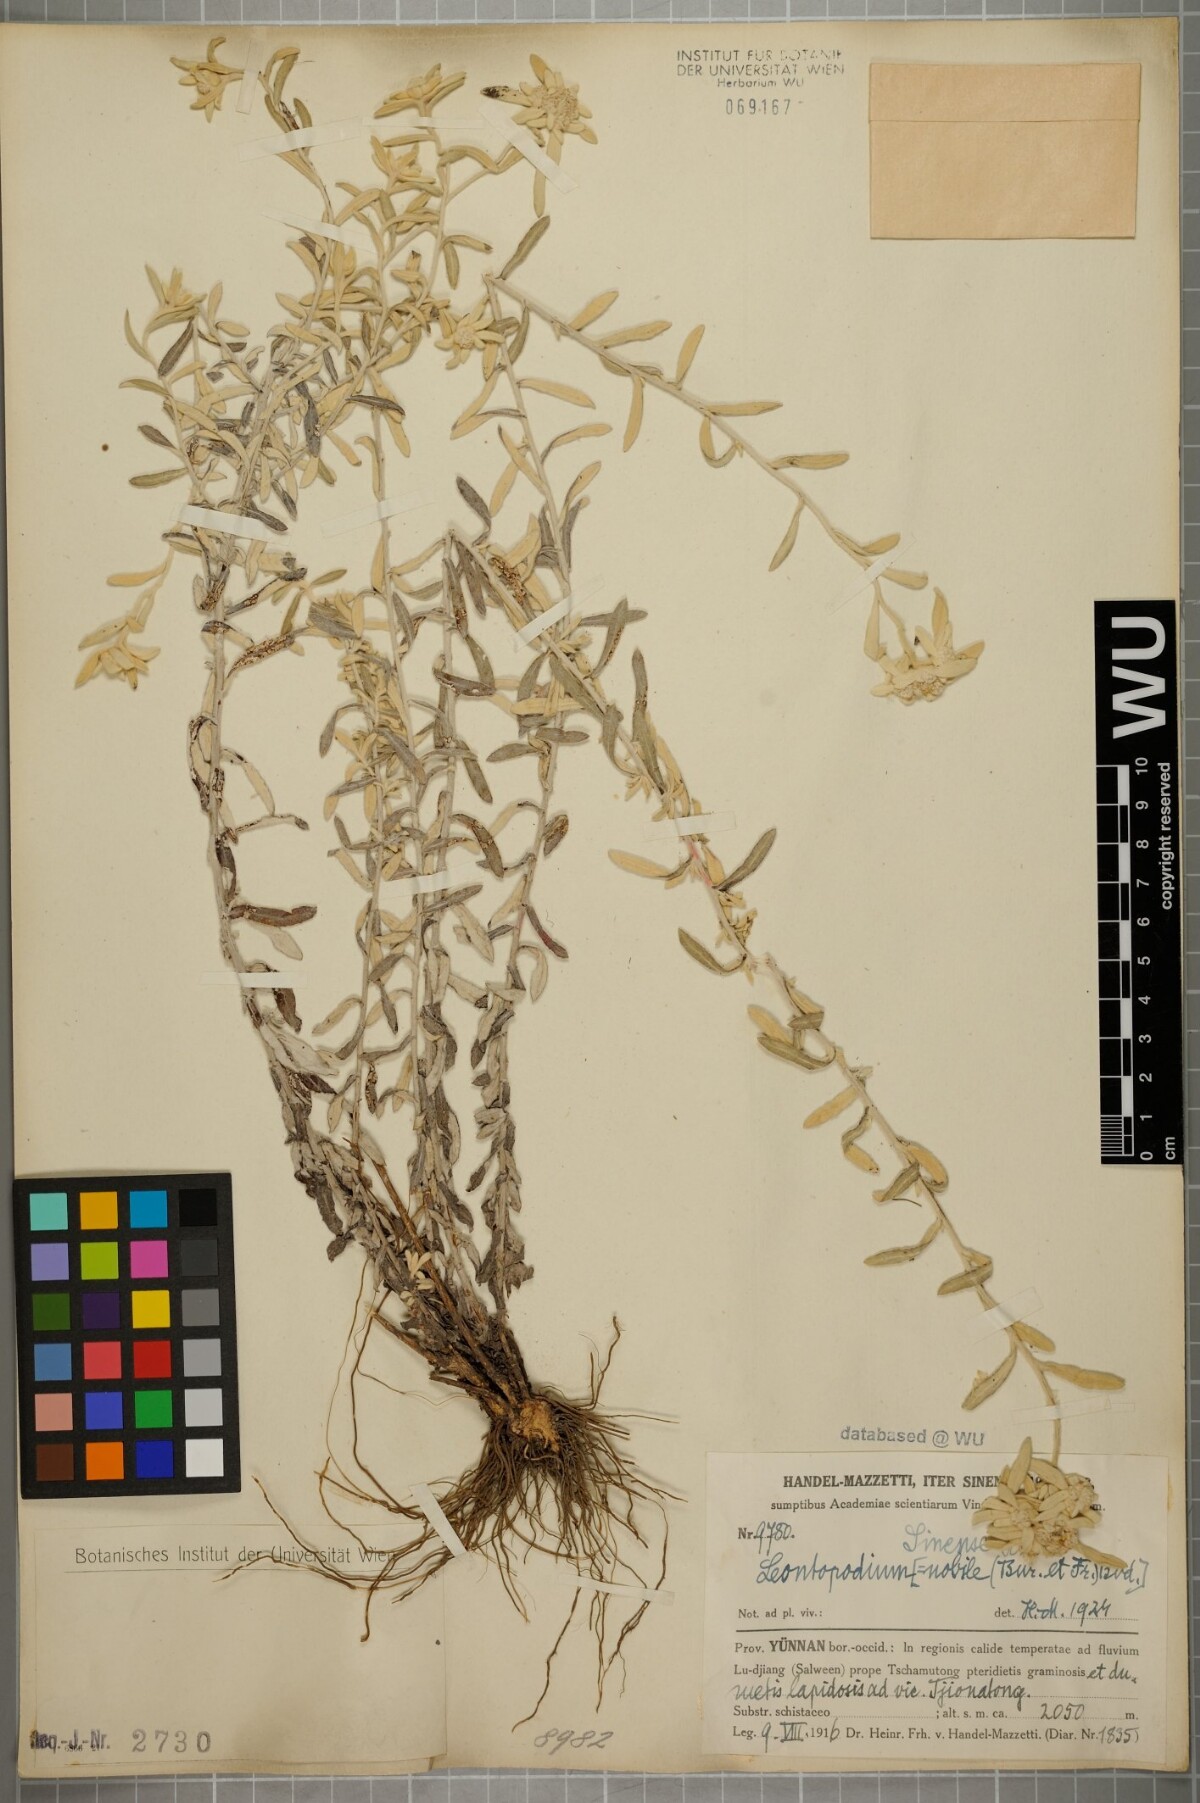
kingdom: Plantae
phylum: Tracheophyta
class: Magnoliopsida
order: Asterales
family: Asteraceae
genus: Leontopodium
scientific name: Leontopodium sinense
